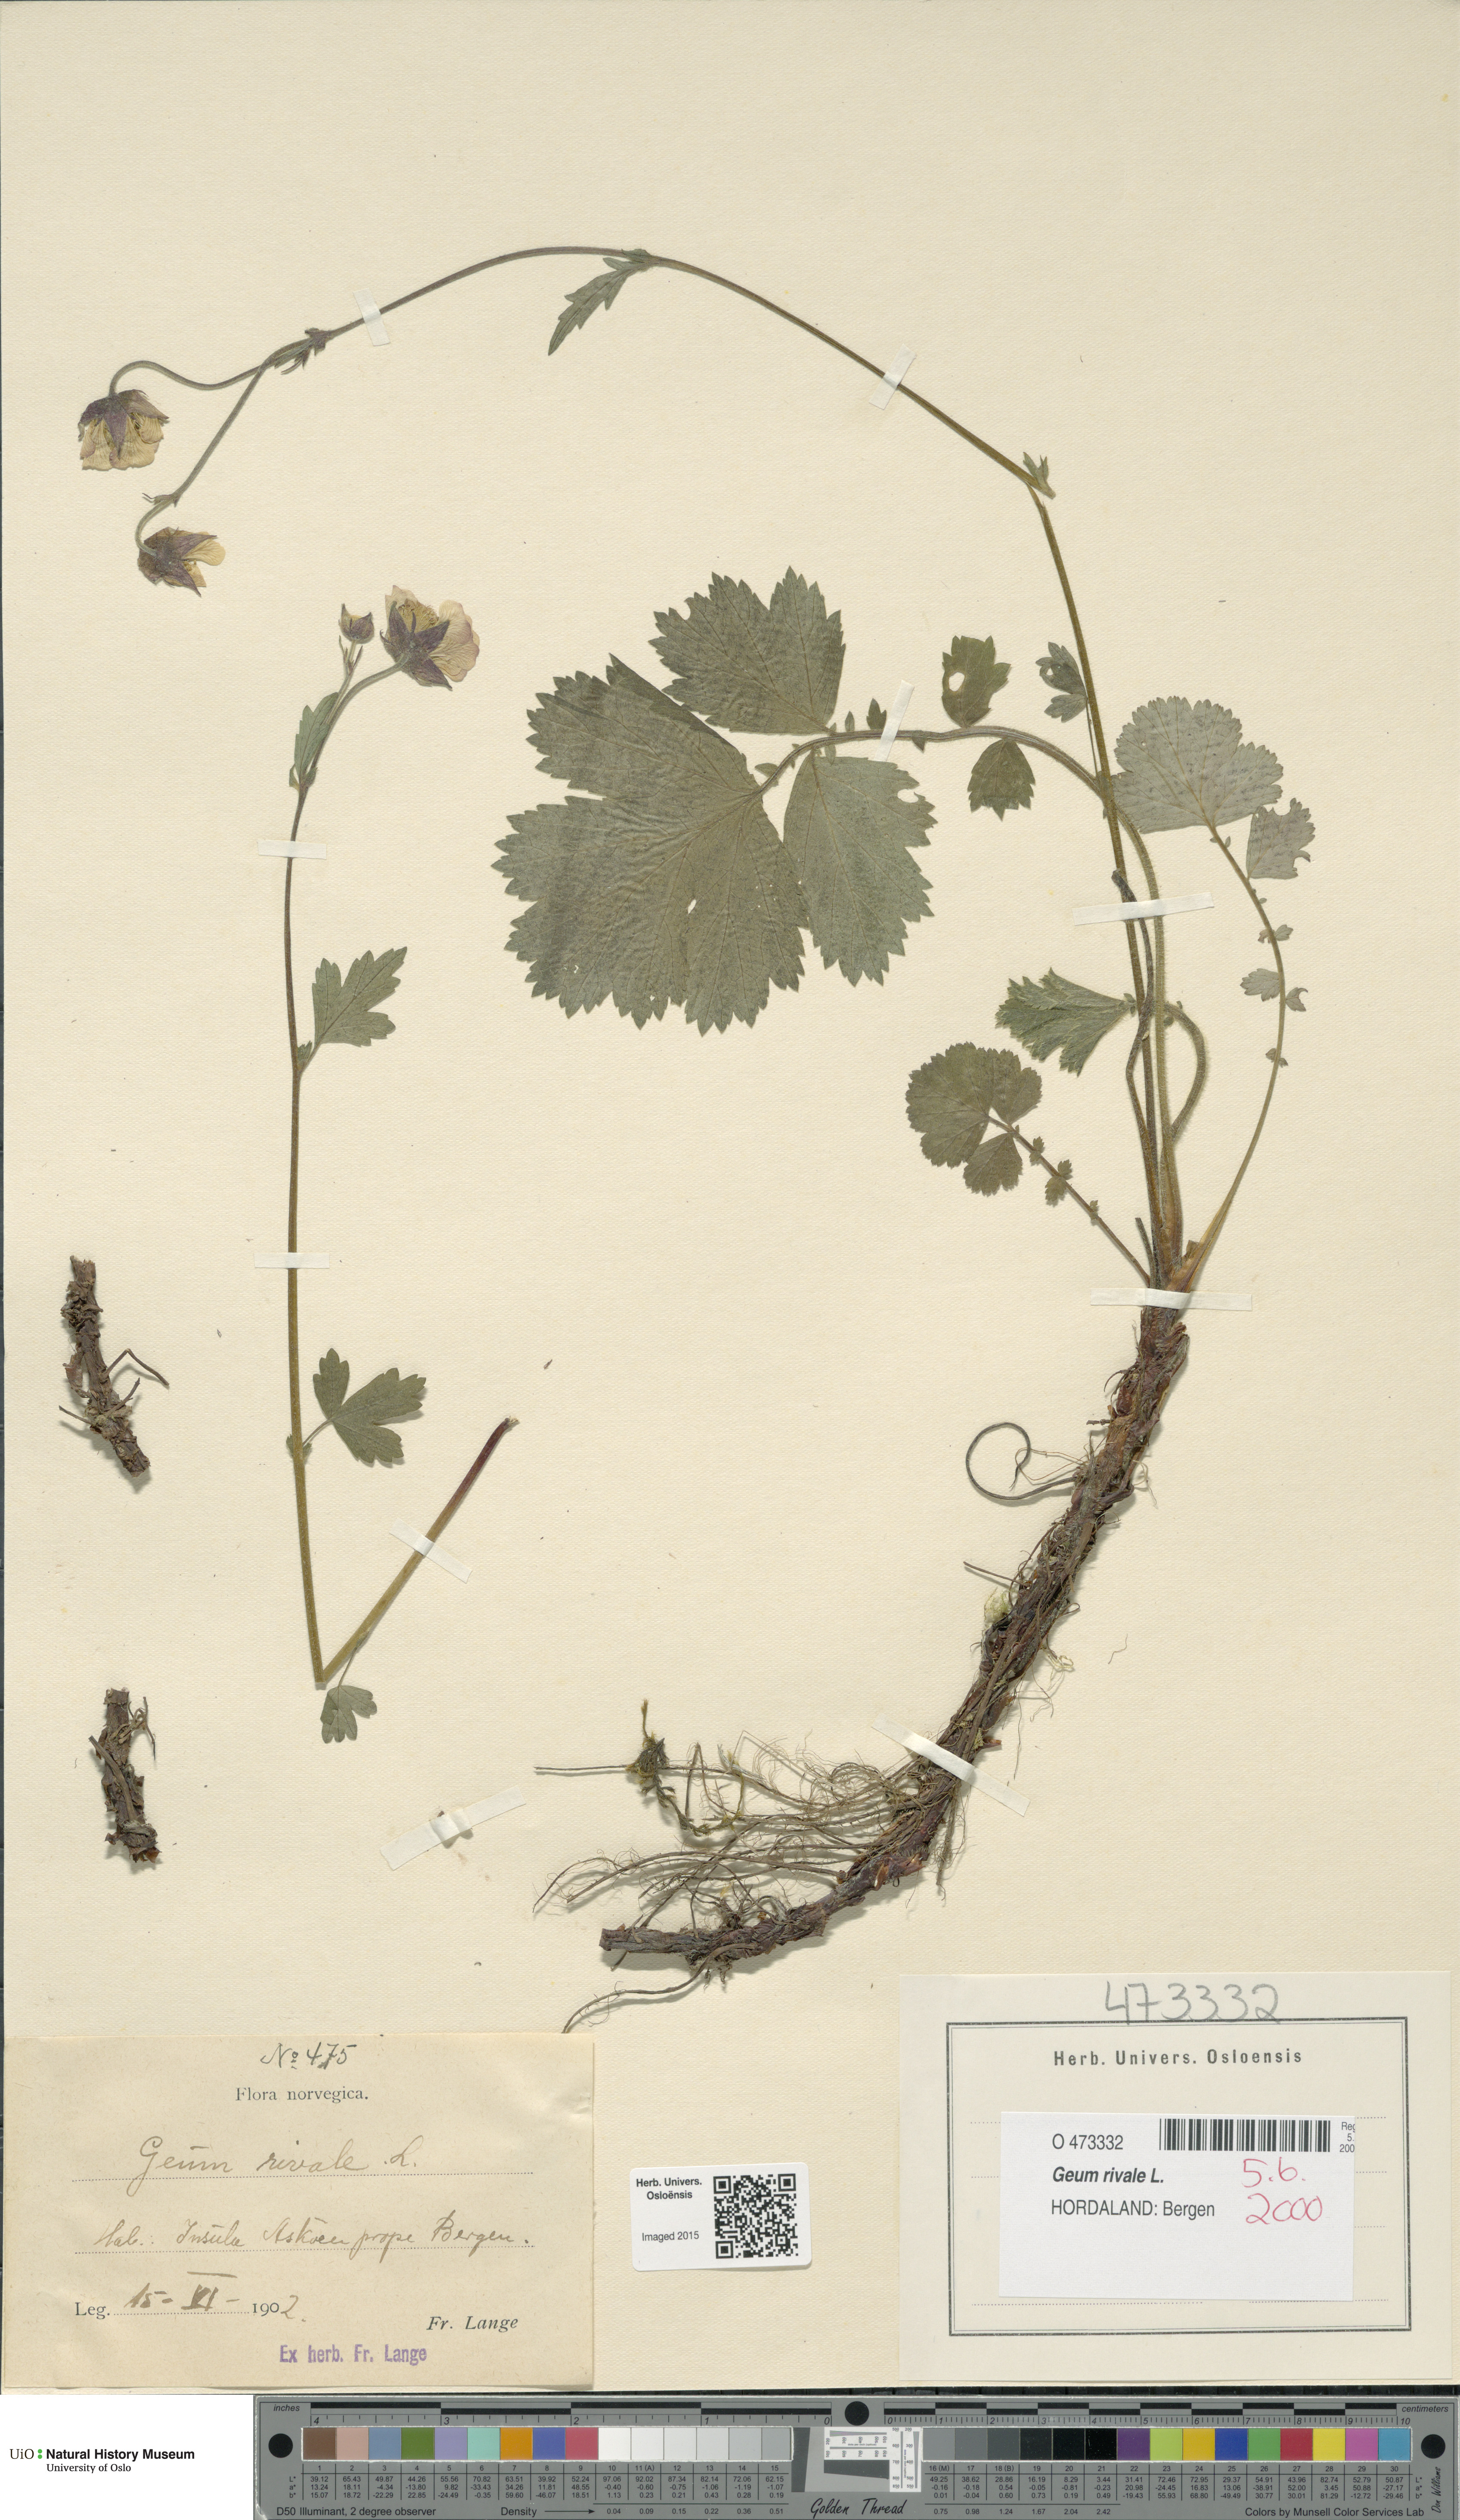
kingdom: Plantae
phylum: Tracheophyta
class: Magnoliopsida
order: Rosales
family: Rosaceae
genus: Geum
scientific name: Geum rivale
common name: Water avens
